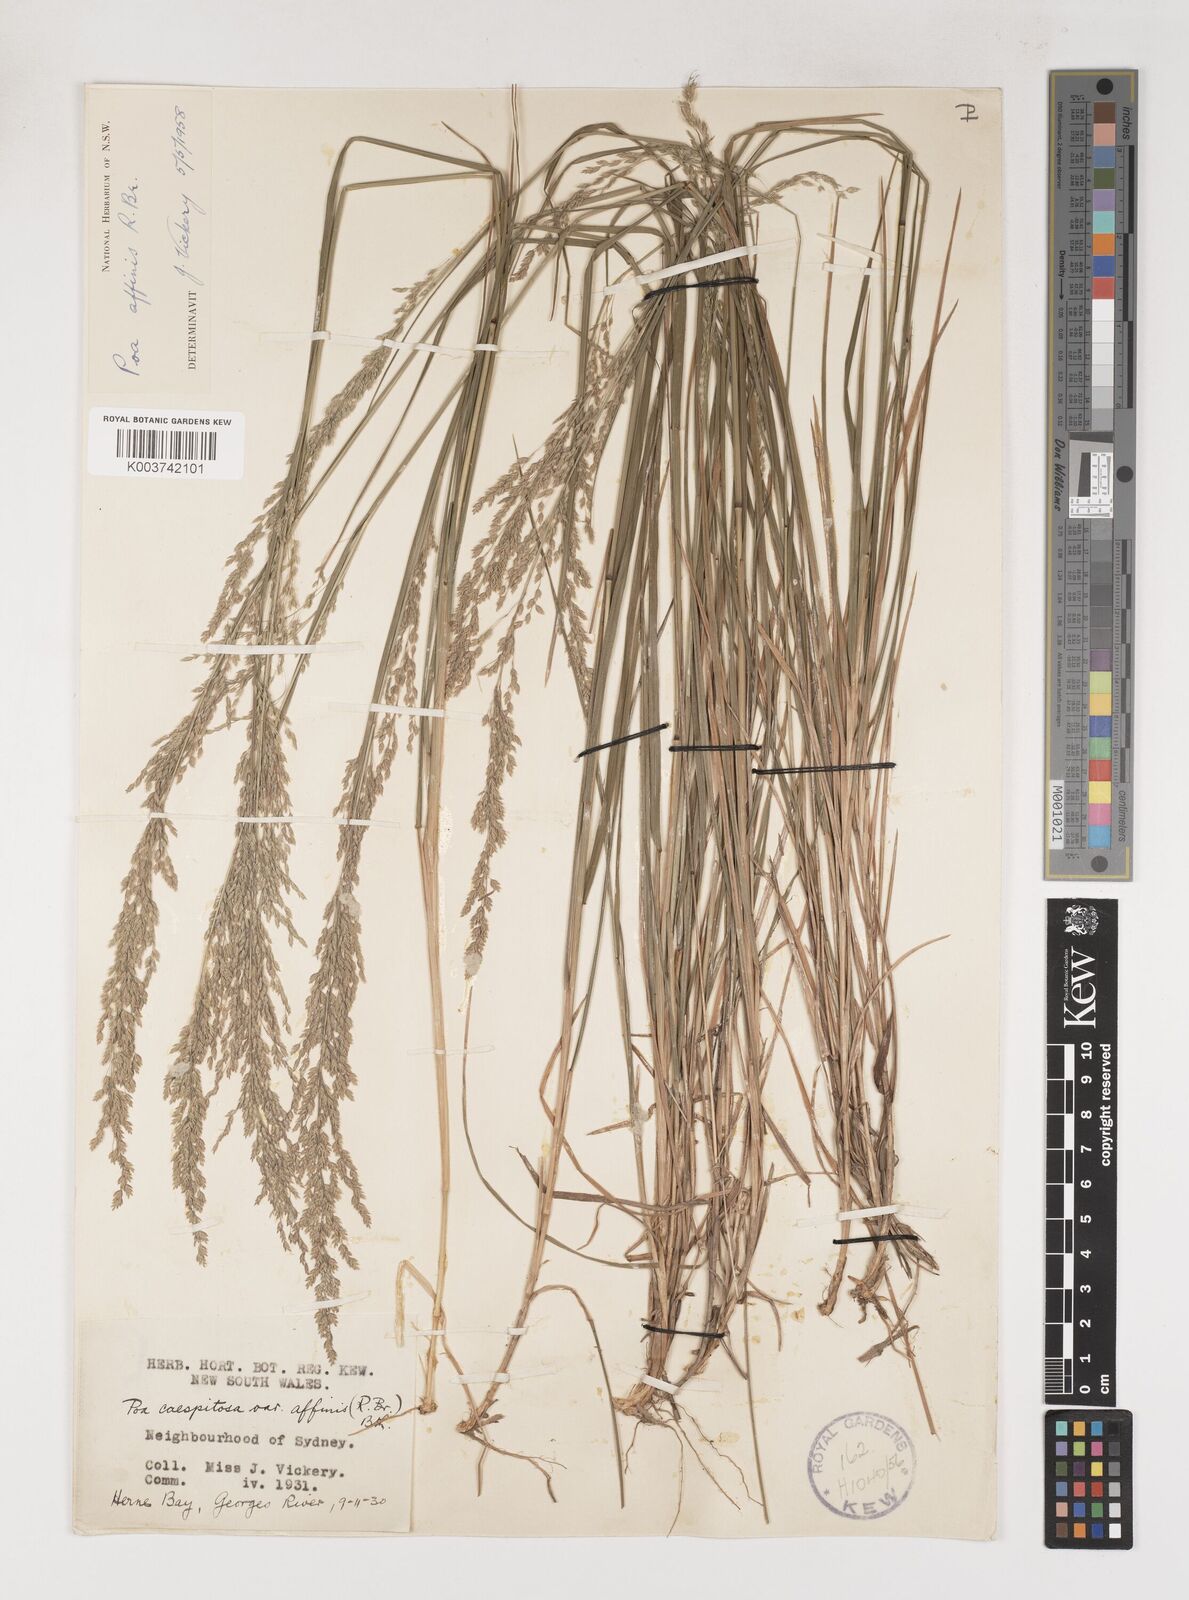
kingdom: Plantae
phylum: Tracheophyta
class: Liliopsida
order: Poales
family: Poaceae
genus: Poa
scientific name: Poa affinis
